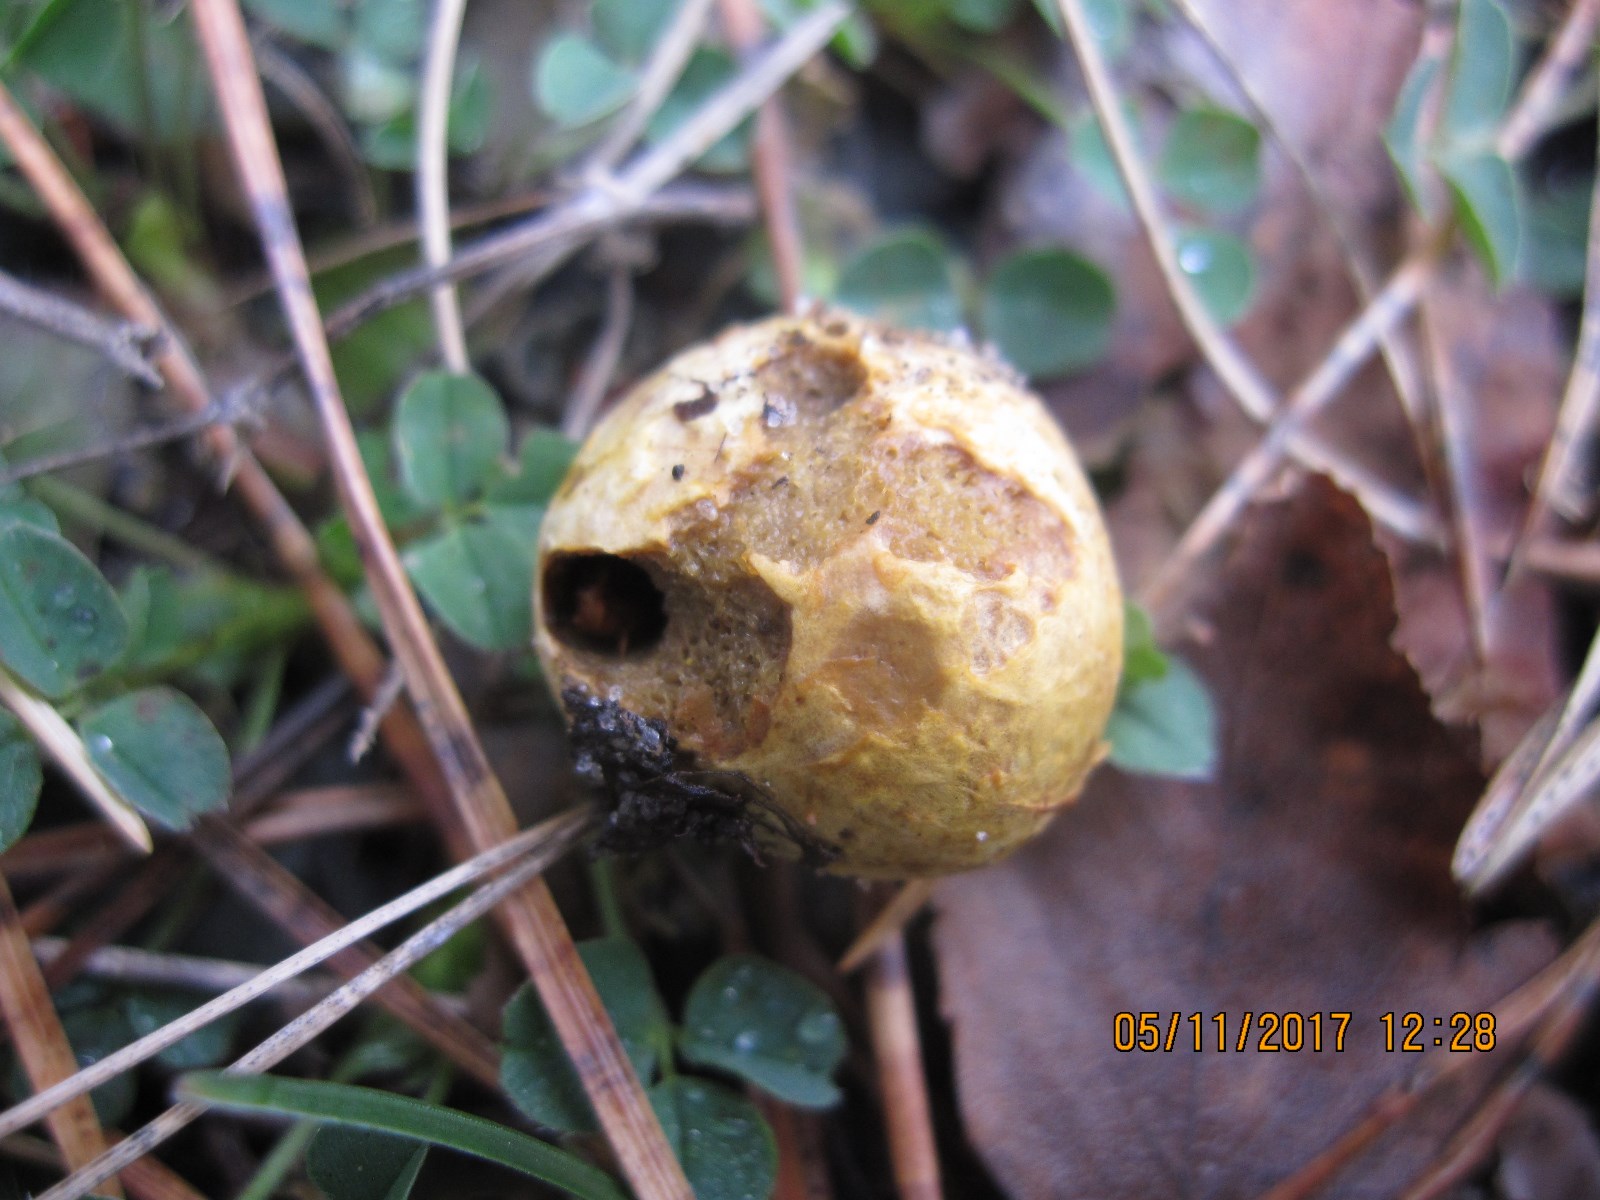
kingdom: Fungi
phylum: Basidiomycota
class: Agaricomycetes
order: Boletales
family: Rhizopogonaceae
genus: Rhizopogon
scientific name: Rhizopogon
